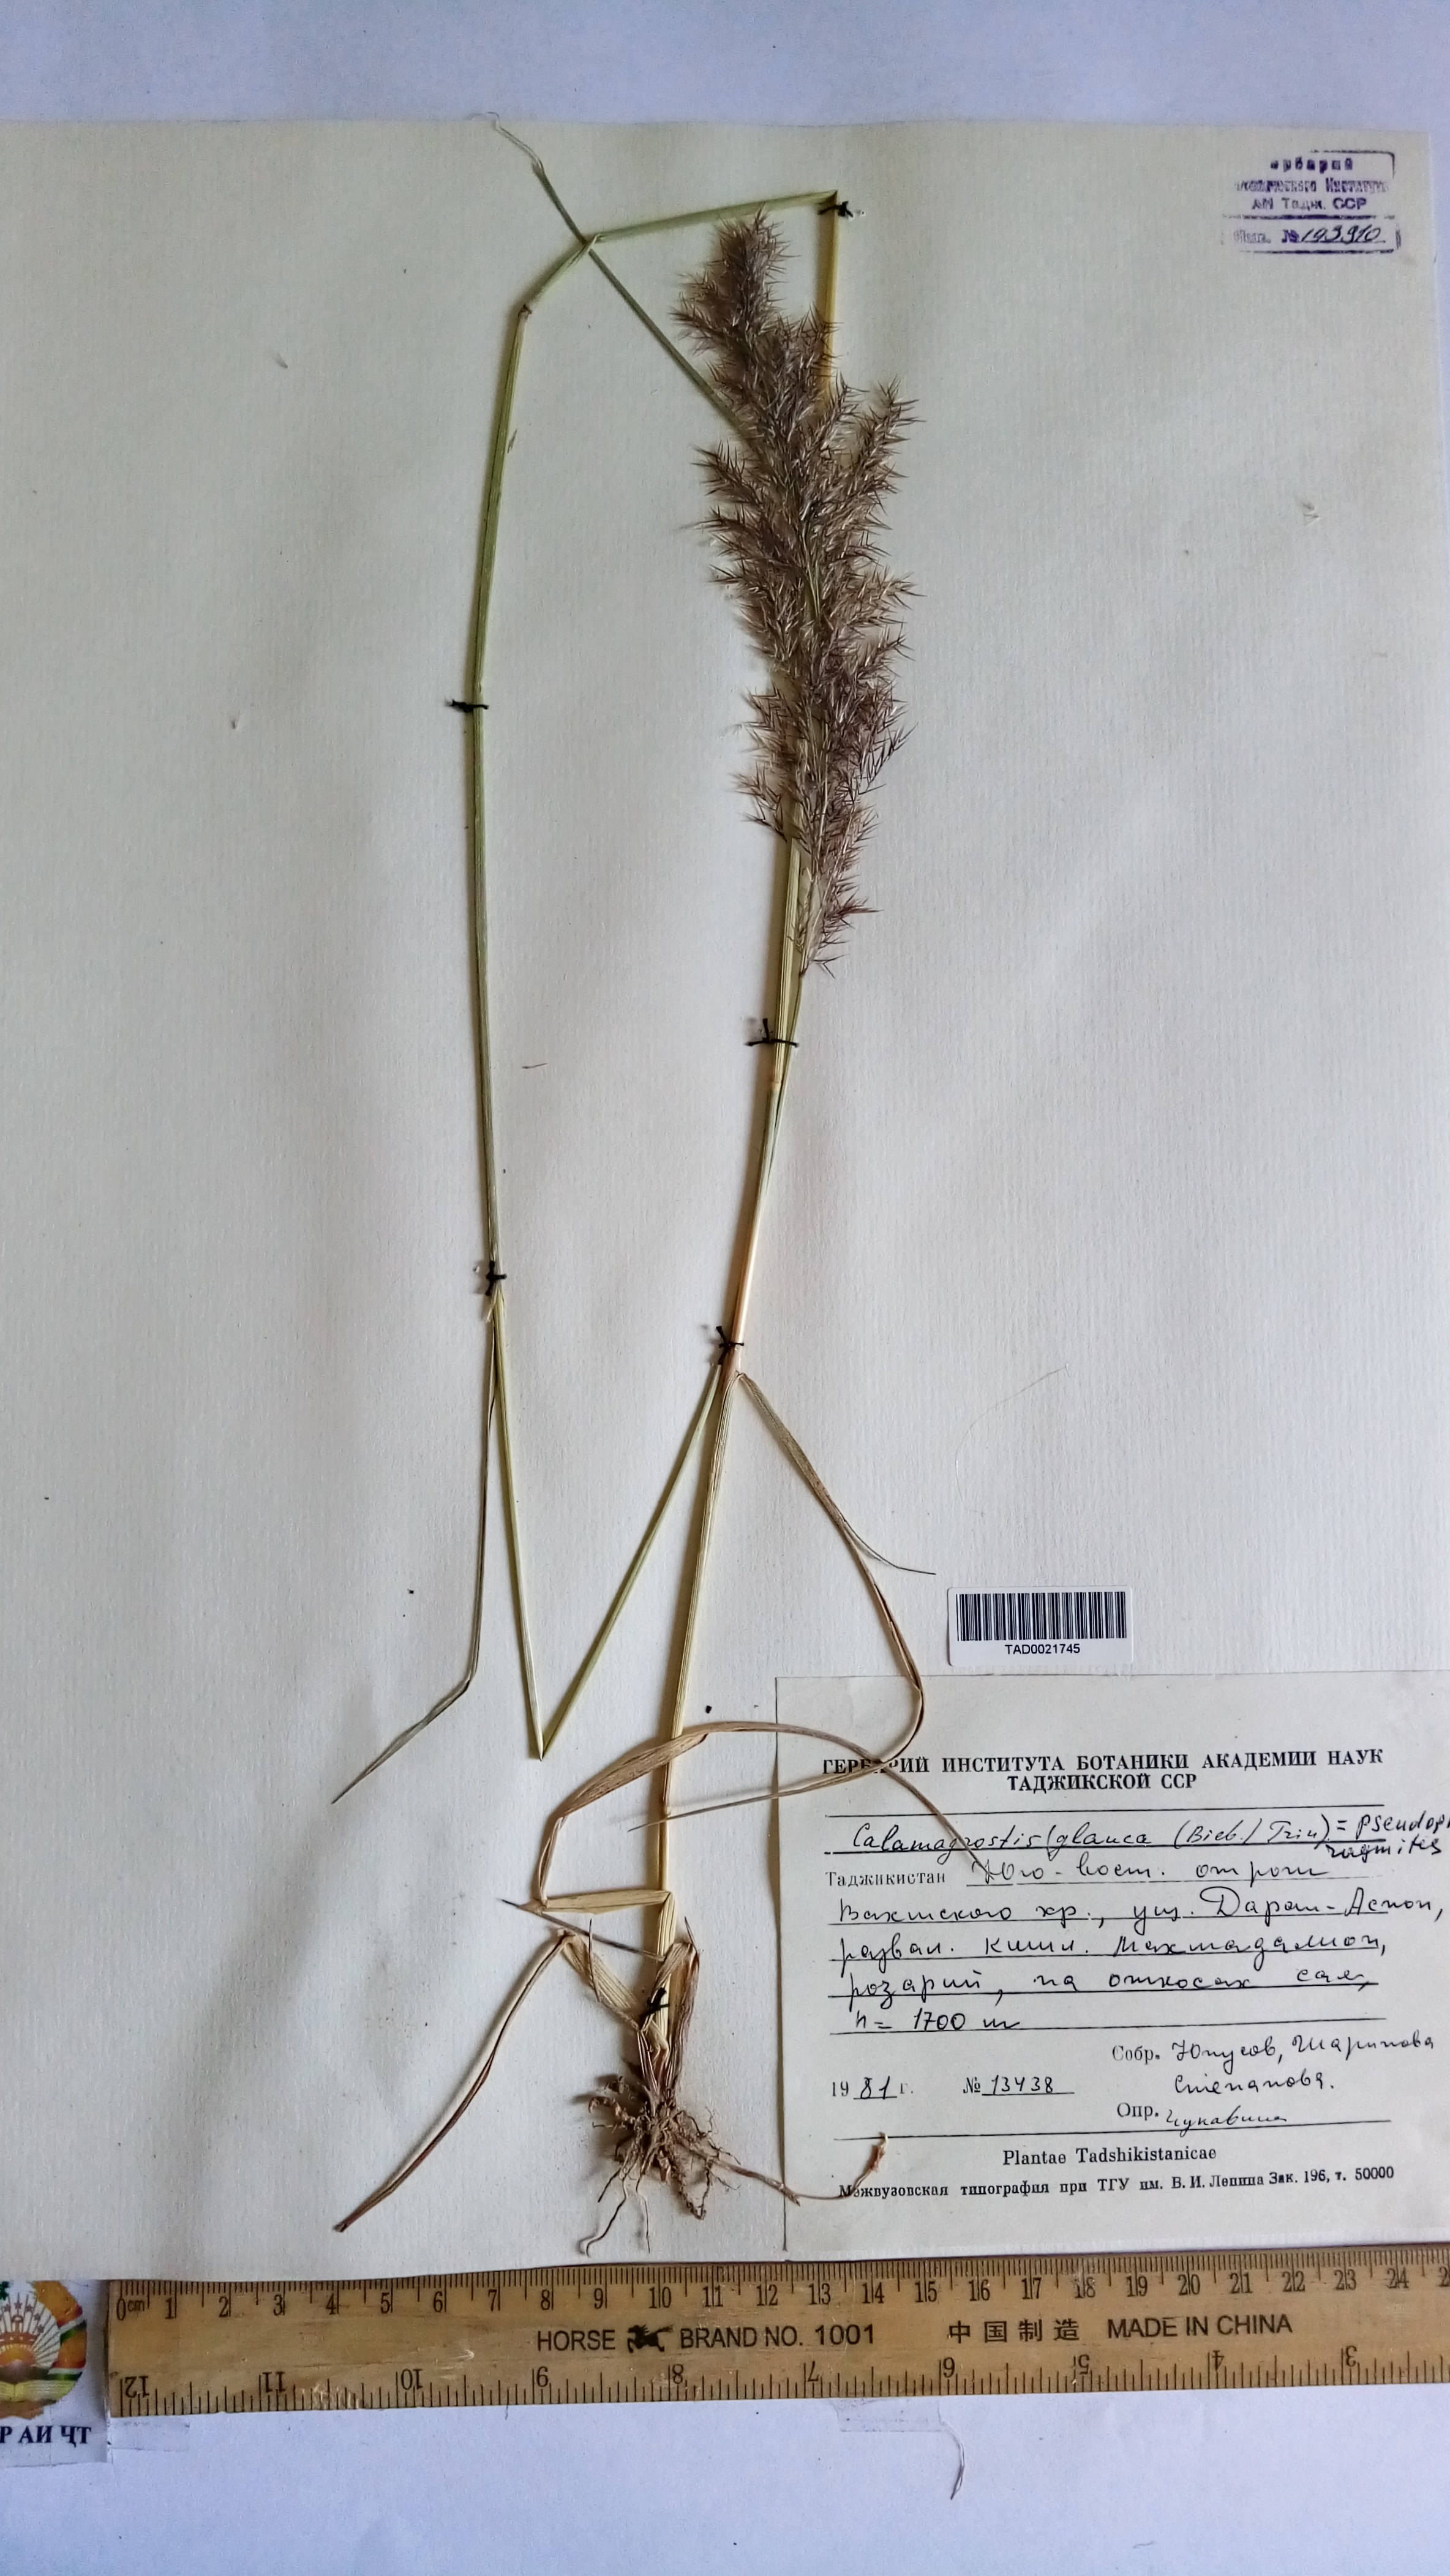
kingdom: Plantae
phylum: Tracheophyta
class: Liliopsida
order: Poales
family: Poaceae
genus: Calamagrostis
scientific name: Calamagrostis pseudophragmites
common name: Coastal small-reed
